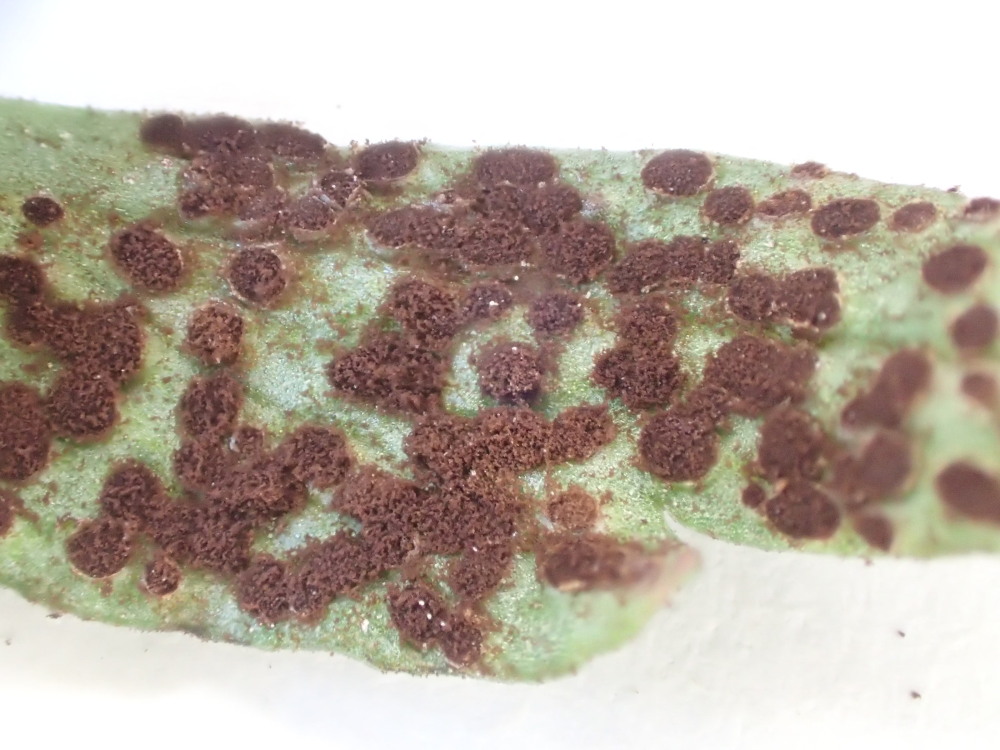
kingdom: Fungi
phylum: Basidiomycota
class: Pucciniomycetes
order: Pucciniales
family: Tranzscheliaceae
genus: Tranzschelia
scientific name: Tranzschelia anemones
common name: anemone-knæksporerust
